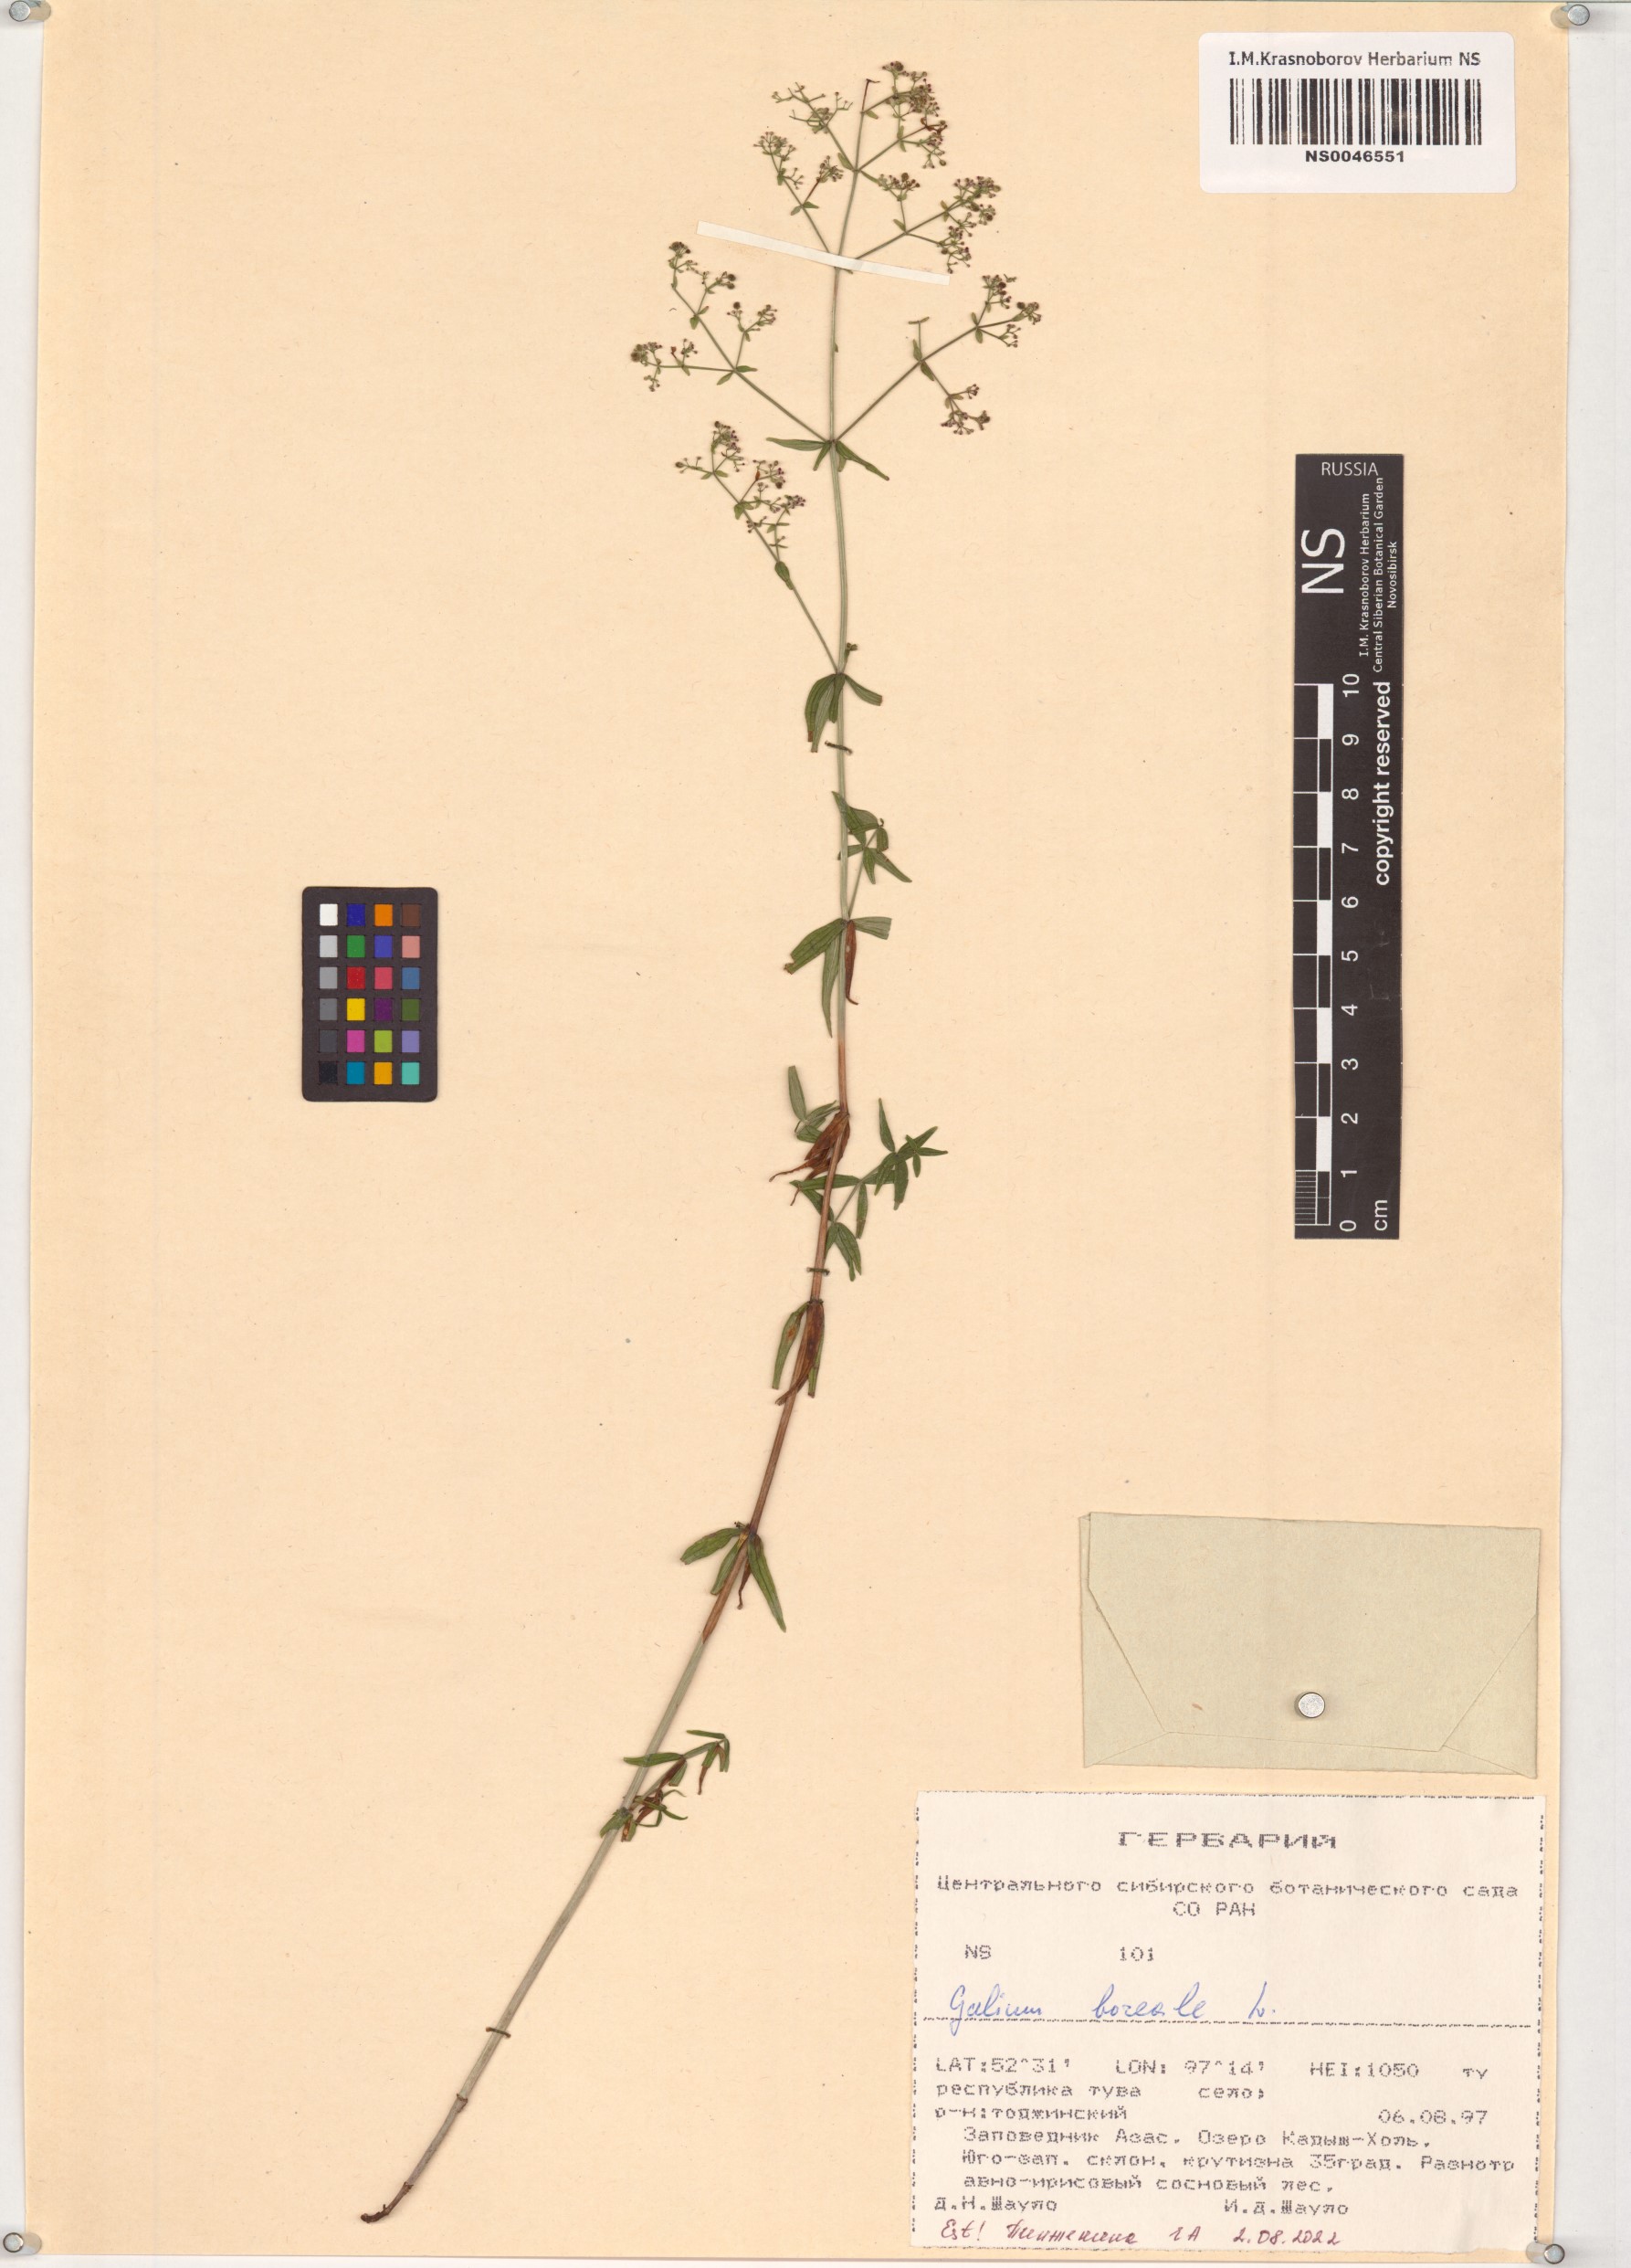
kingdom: Plantae
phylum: Tracheophyta
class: Magnoliopsida
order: Gentianales
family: Rubiaceae
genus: Galium
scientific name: Galium boreale
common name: Northern bedstraw
